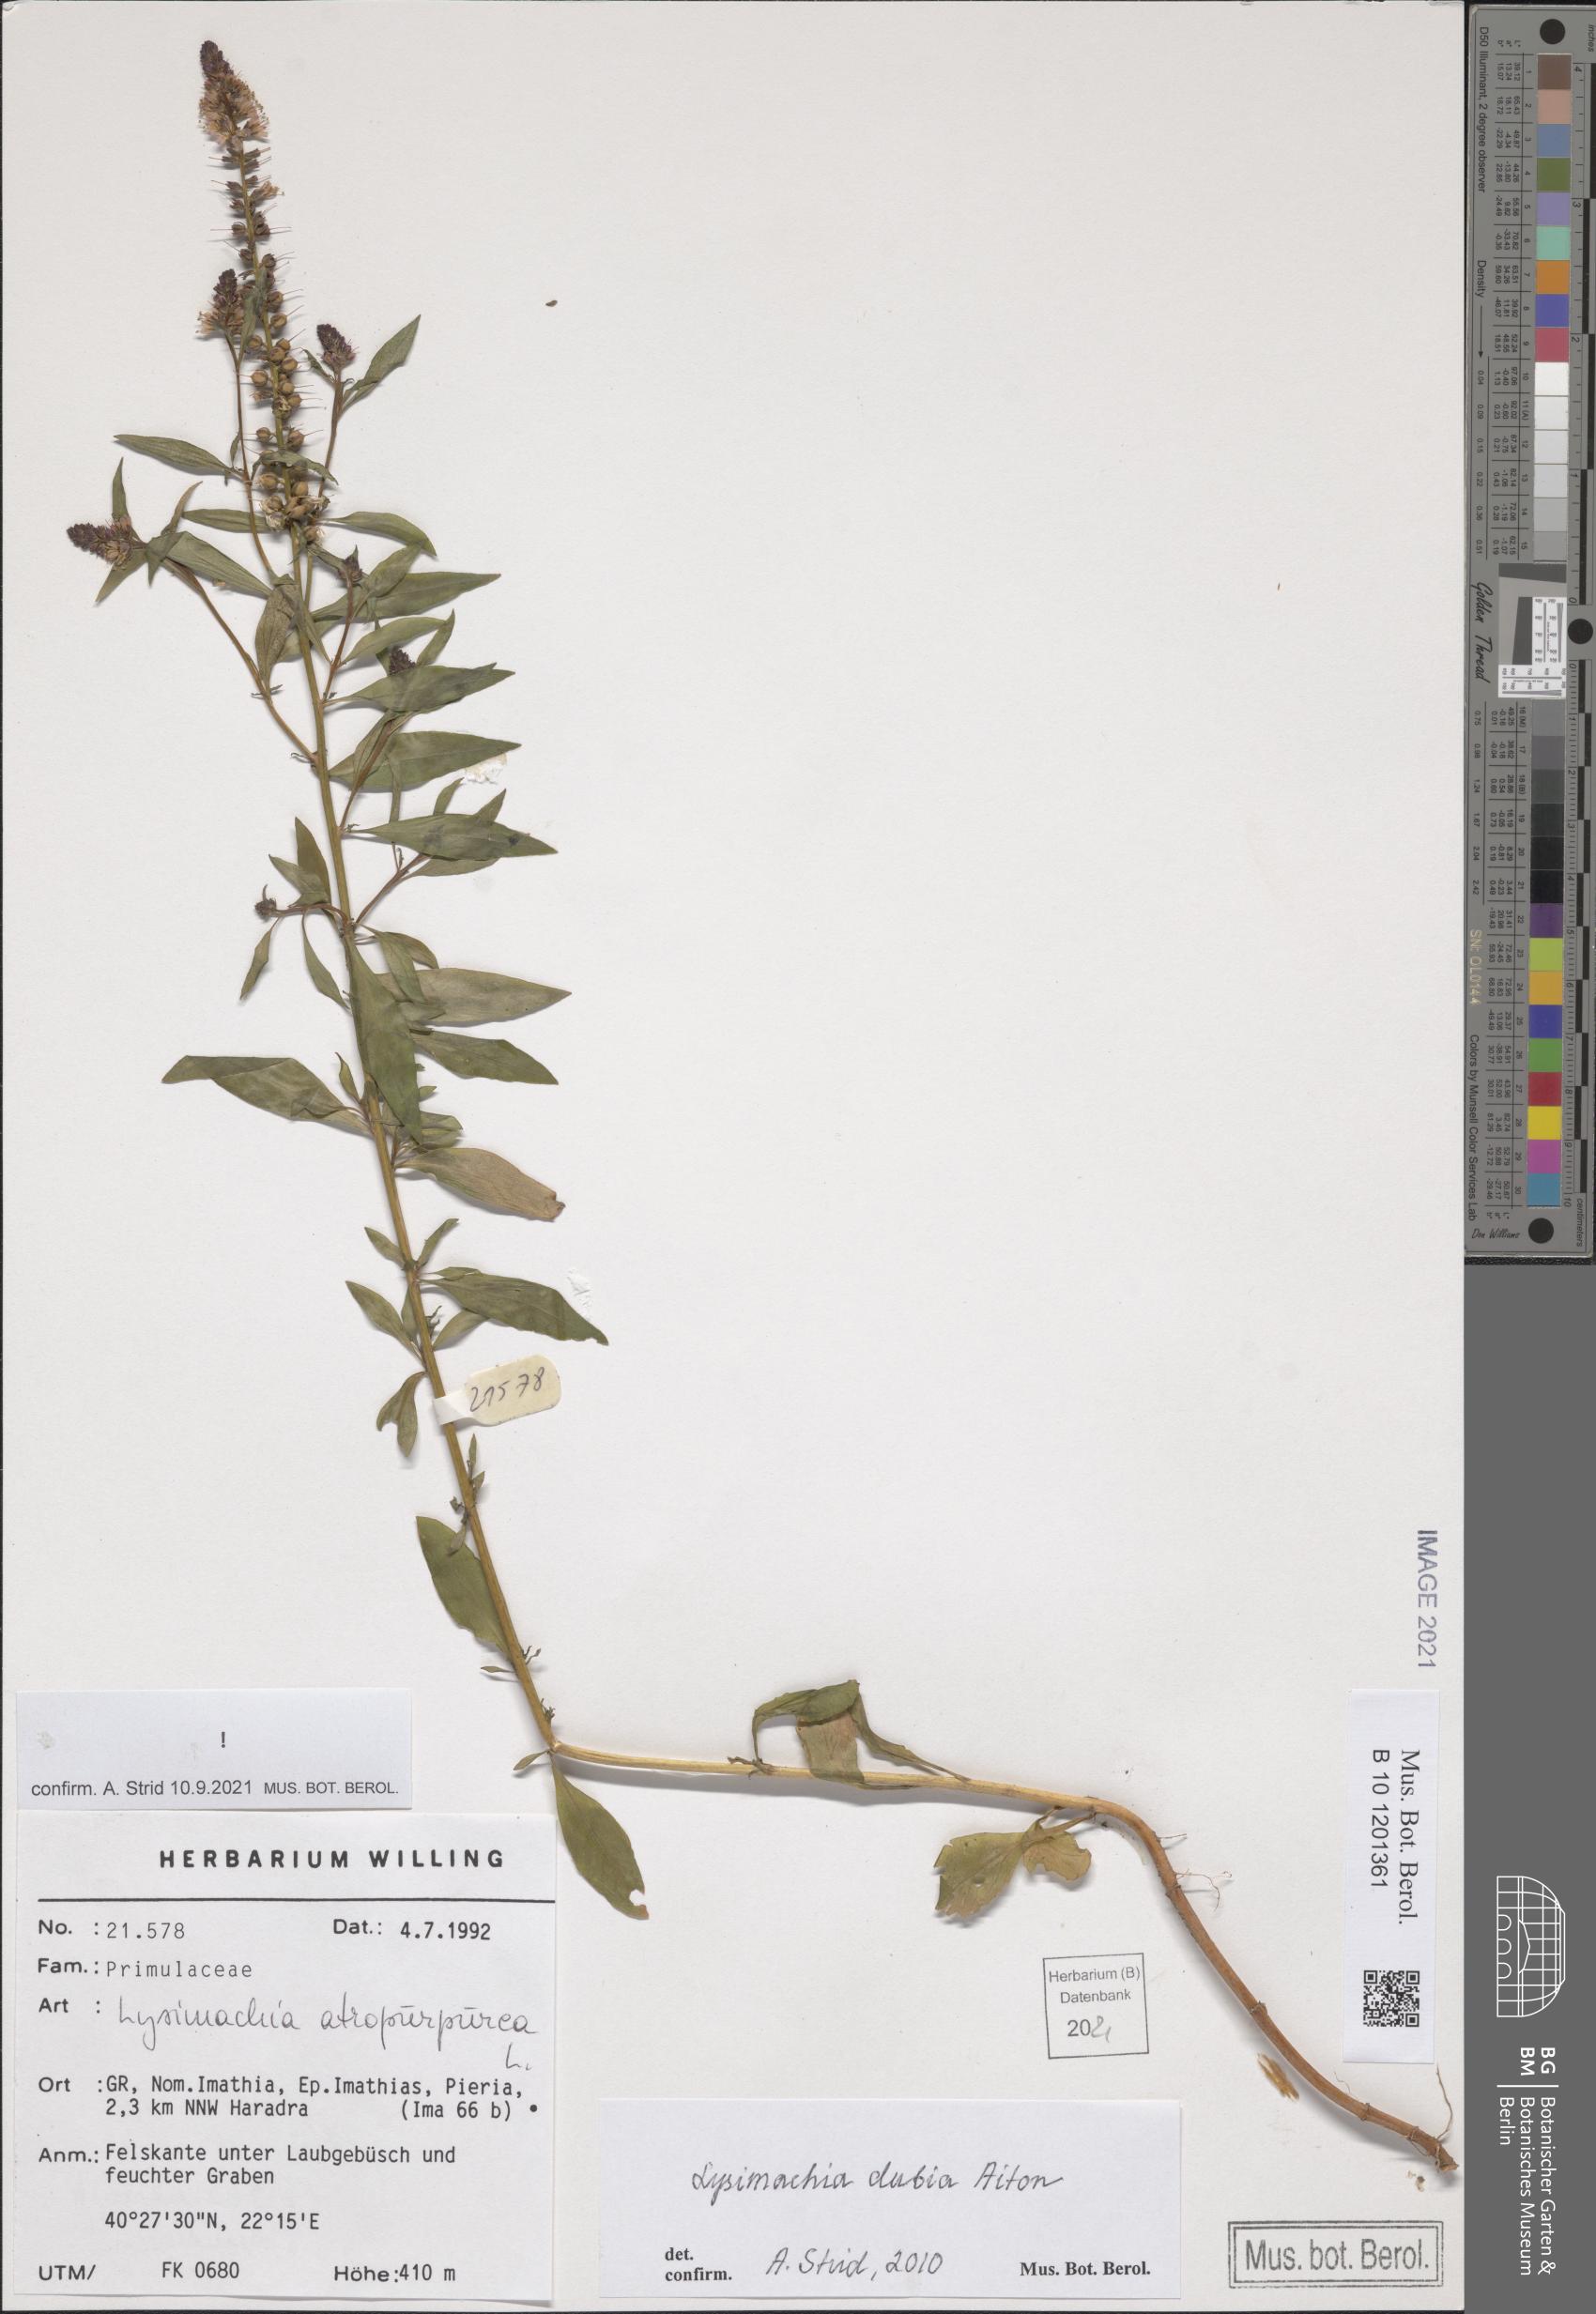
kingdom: Plantae
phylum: Tracheophyta
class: Magnoliopsida
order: Ericales
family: Primulaceae
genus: Lysimachia
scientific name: Lysimachia atropurpurea
